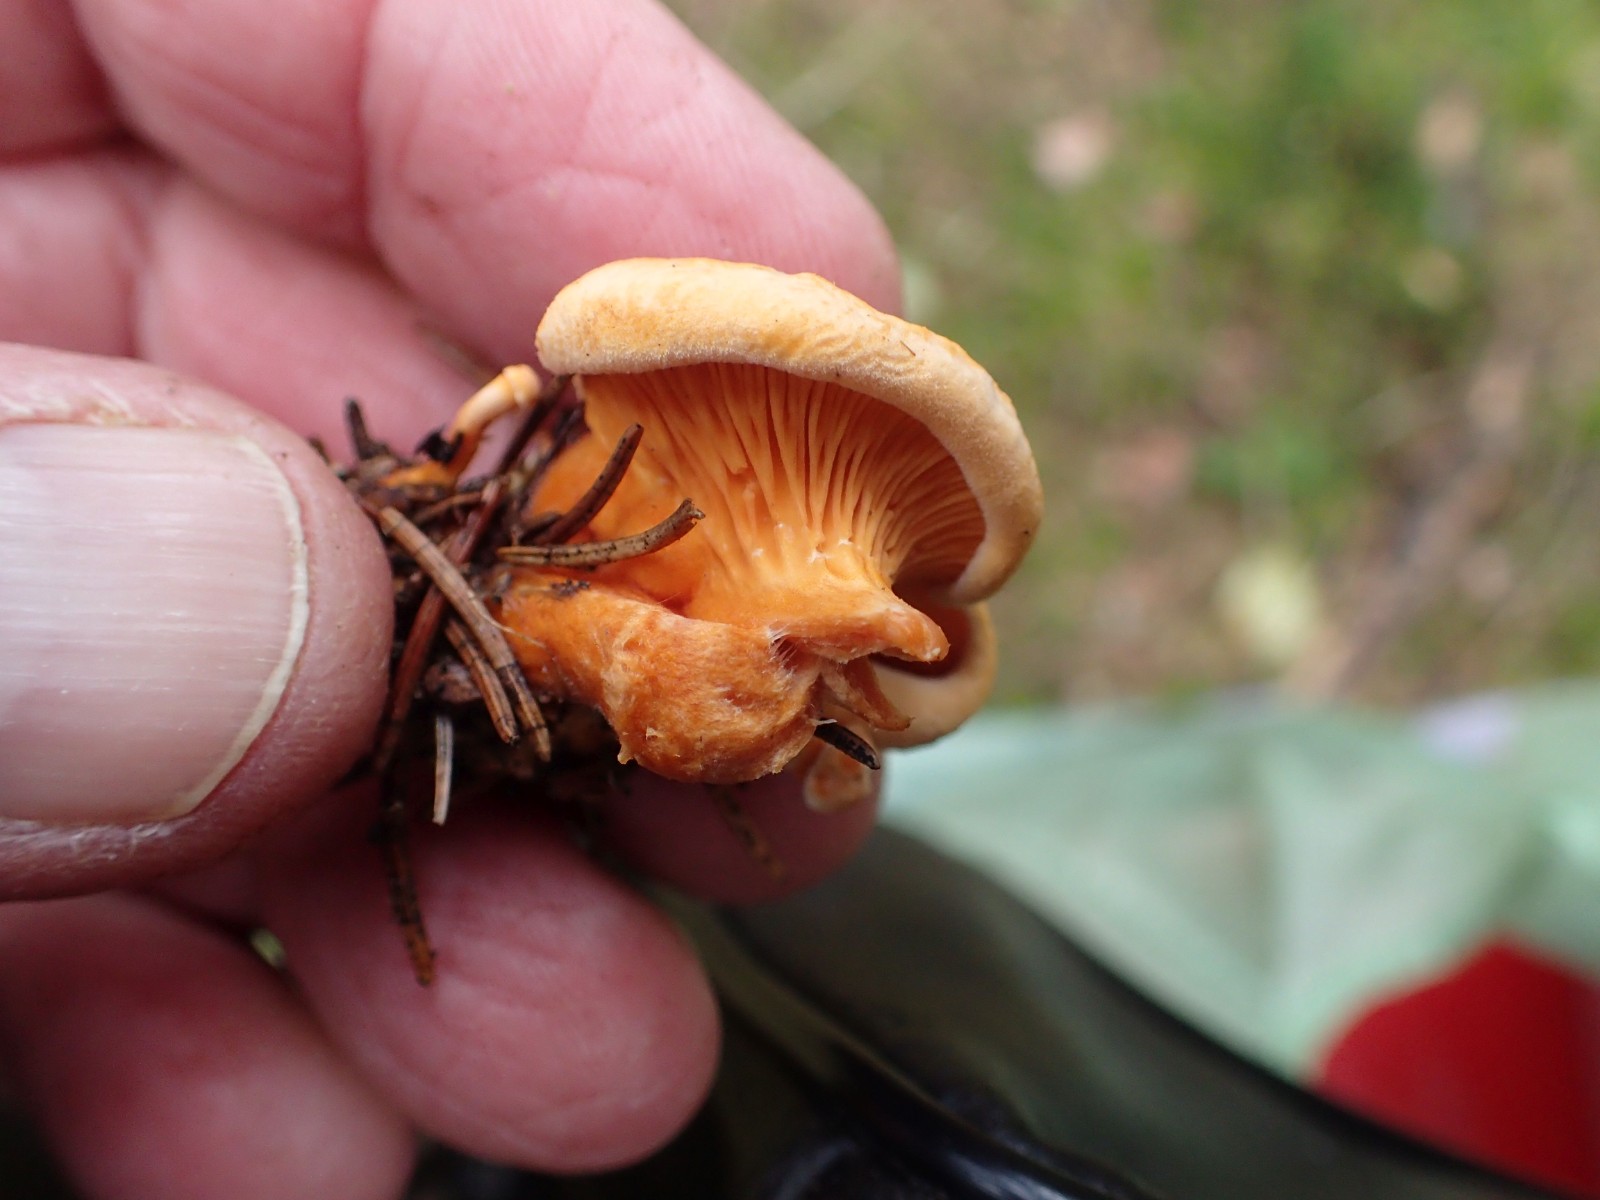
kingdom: Fungi
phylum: Basidiomycota
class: Agaricomycetes
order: Boletales
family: Hygrophoropsidaceae
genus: Hygrophoropsis
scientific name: Hygrophoropsis aurantiaca
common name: almindelig orangekantarel
